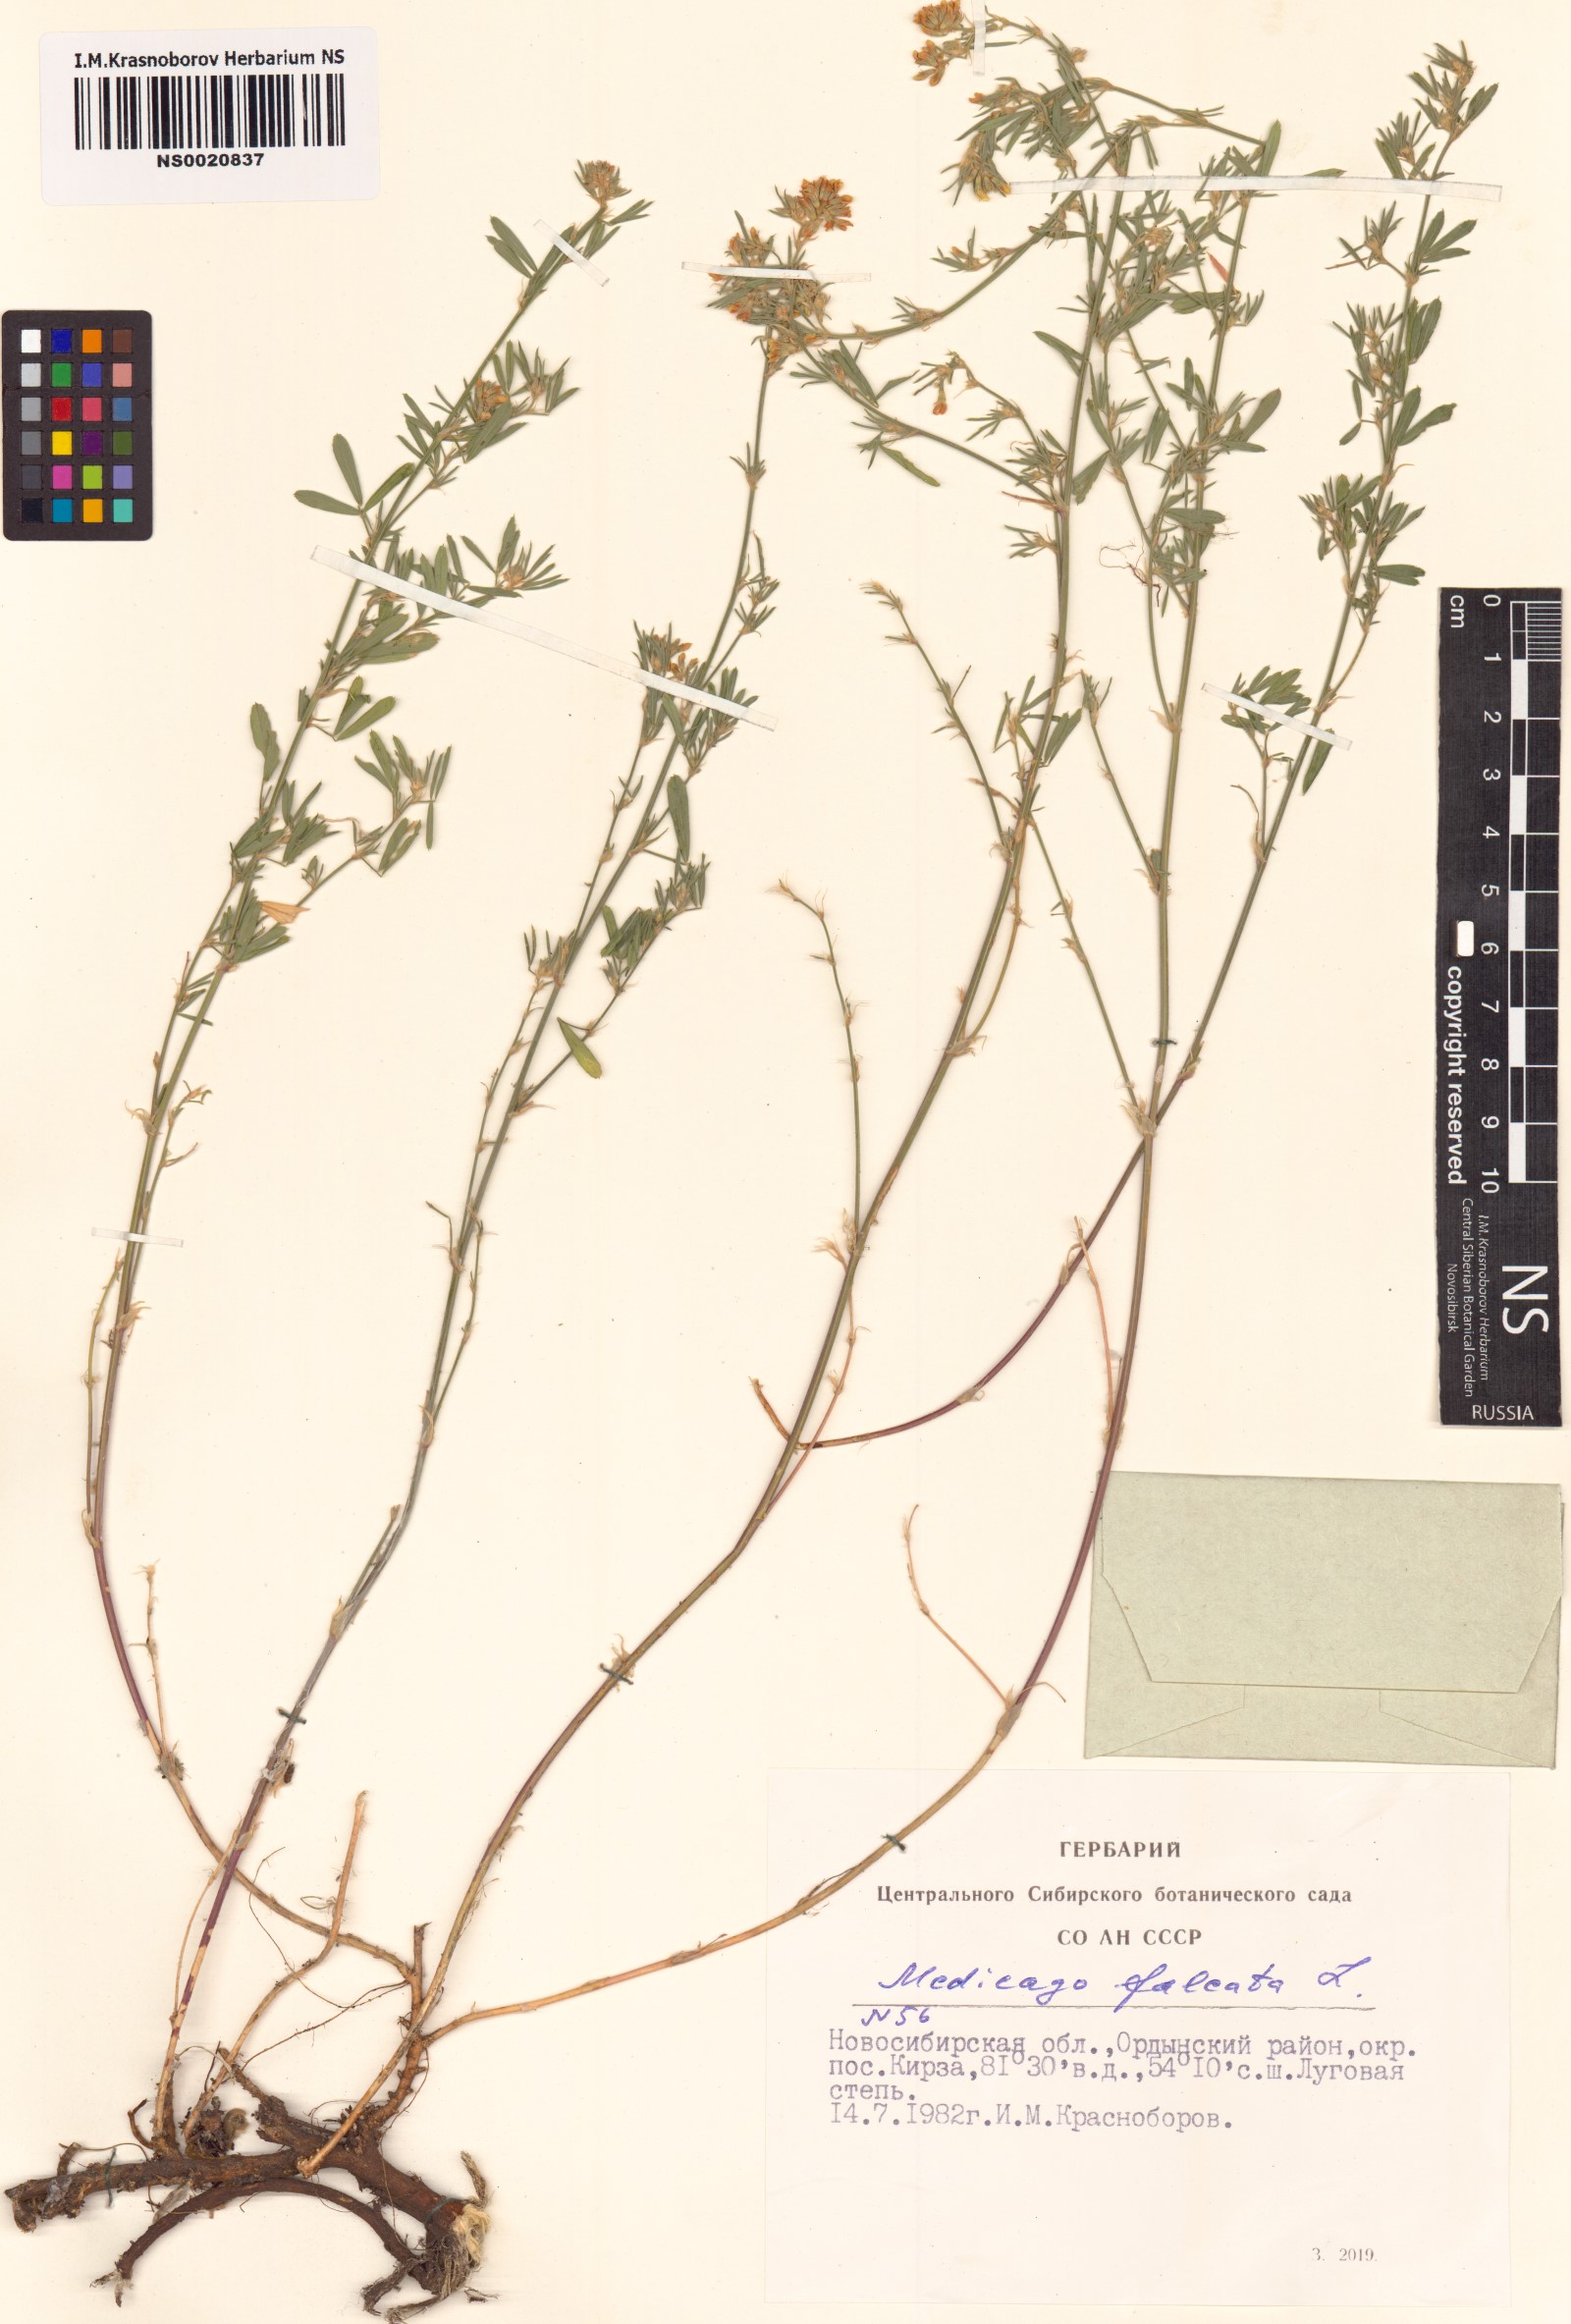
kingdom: Plantae
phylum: Tracheophyta
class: Magnoliopsida
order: Fabales
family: Fabaceae
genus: Medicago
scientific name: Medicago falcata
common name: Sickle medick
